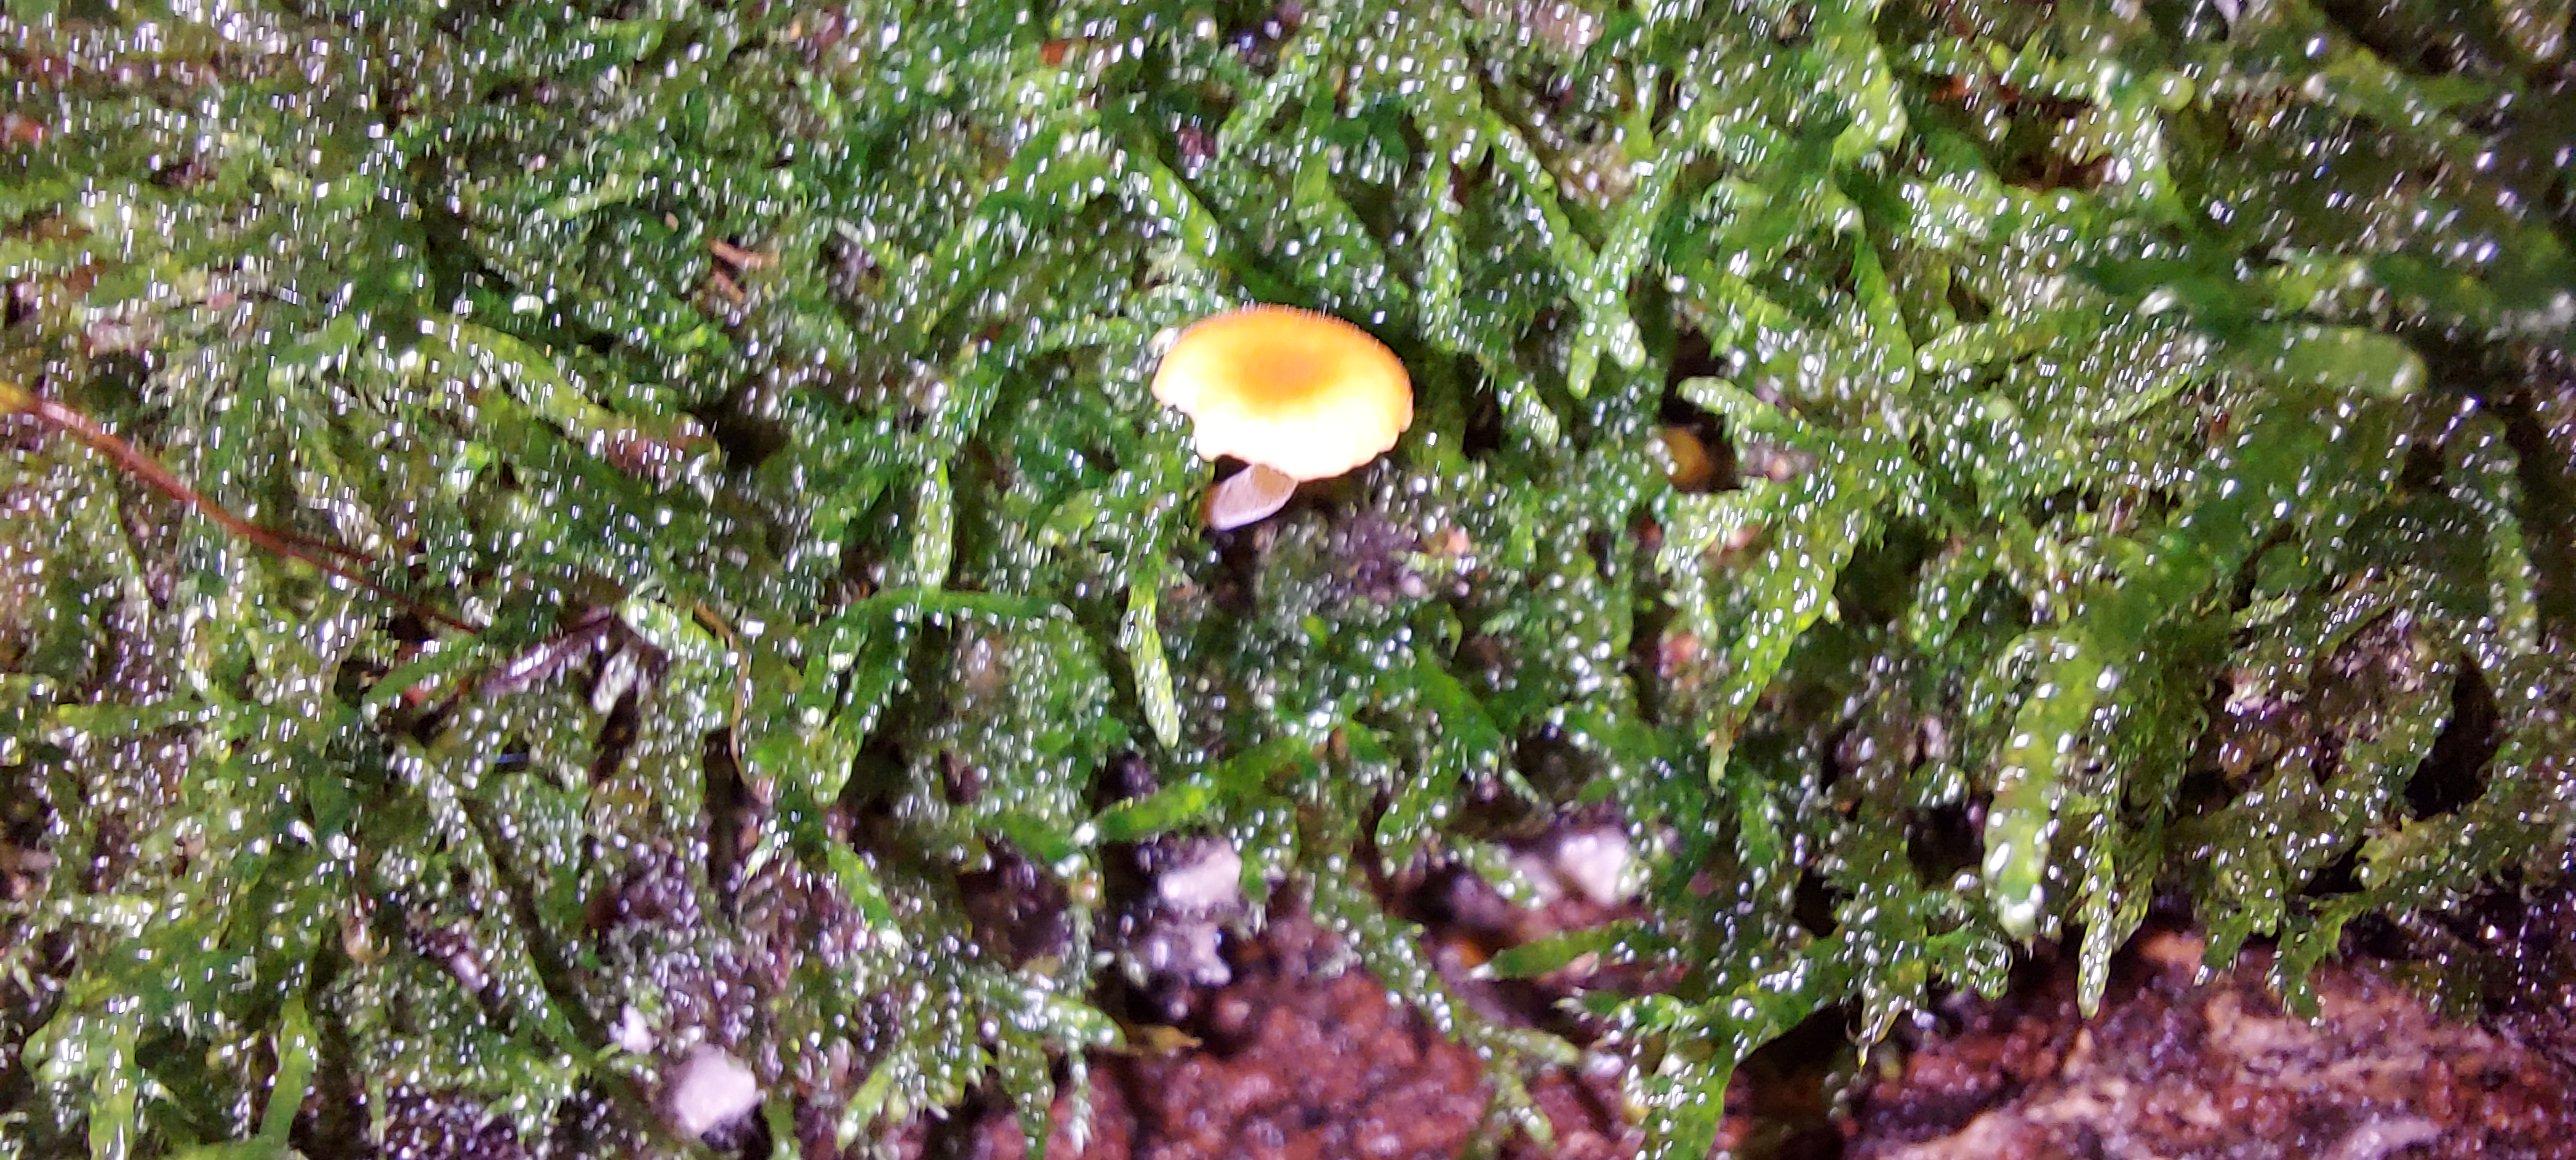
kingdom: Fungi
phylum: Basidiomycota
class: Agaricomycetes
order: Hymenochaetales
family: Rickenellaceae
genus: Rickenella
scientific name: Rickenella fibula
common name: orange mosnavlehat
